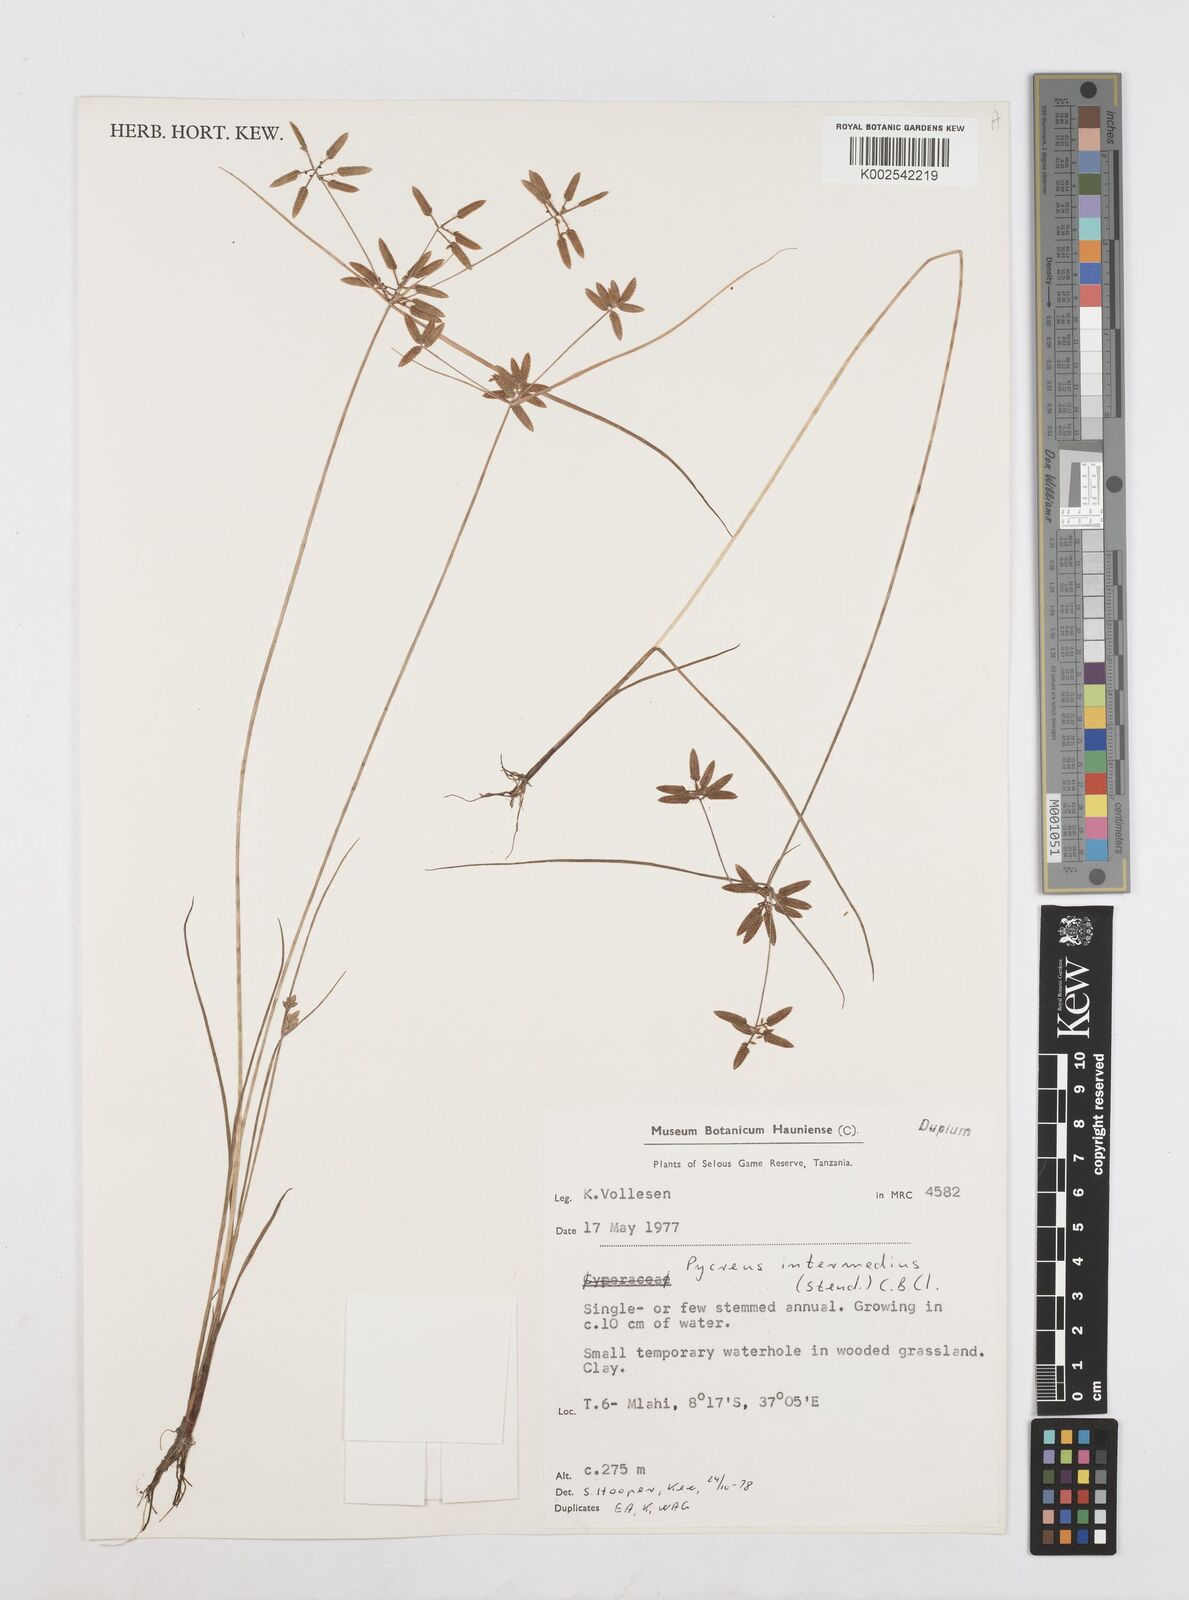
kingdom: Plantae
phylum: Tracheophyta
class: Liliopsida
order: Poales
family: Cyperaceae
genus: Cyperus
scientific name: Cyperus flavescens
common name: Yellow galingale
